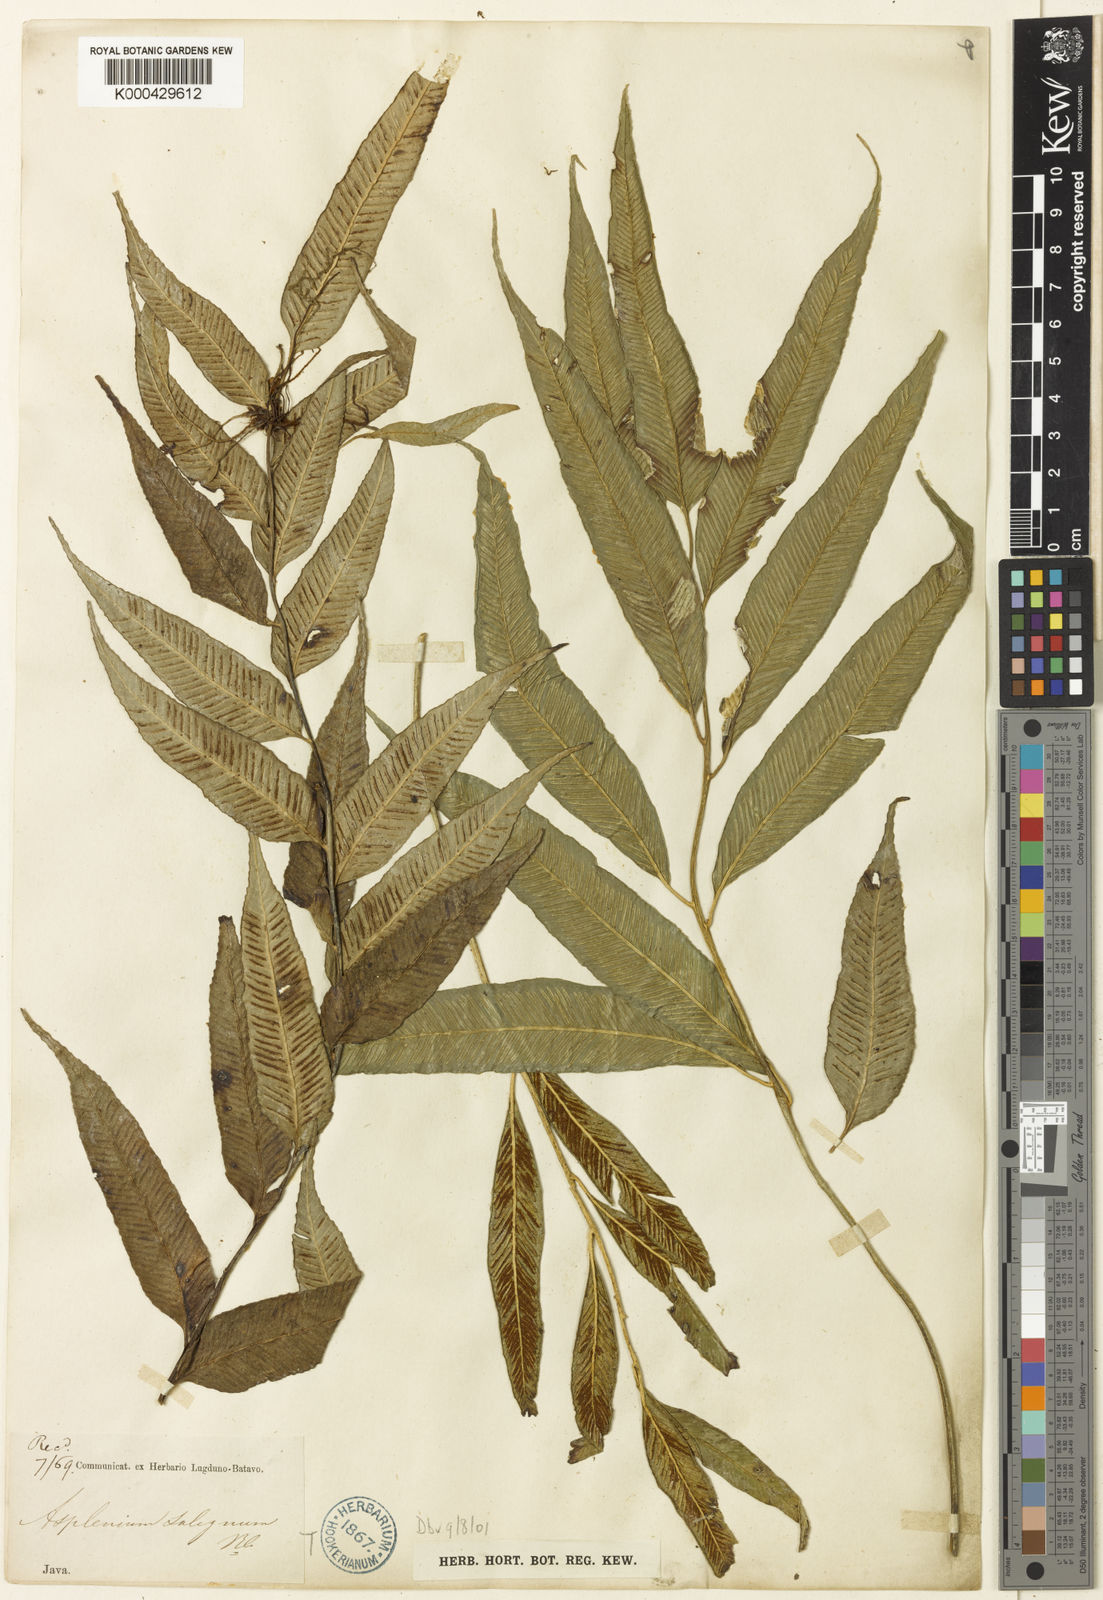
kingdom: Plantae
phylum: Tracheophyta
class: Polypodiopsida
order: Polypodiales
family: Aspleniaceae
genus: Asplenium
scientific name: Asplenium vulcanicum
